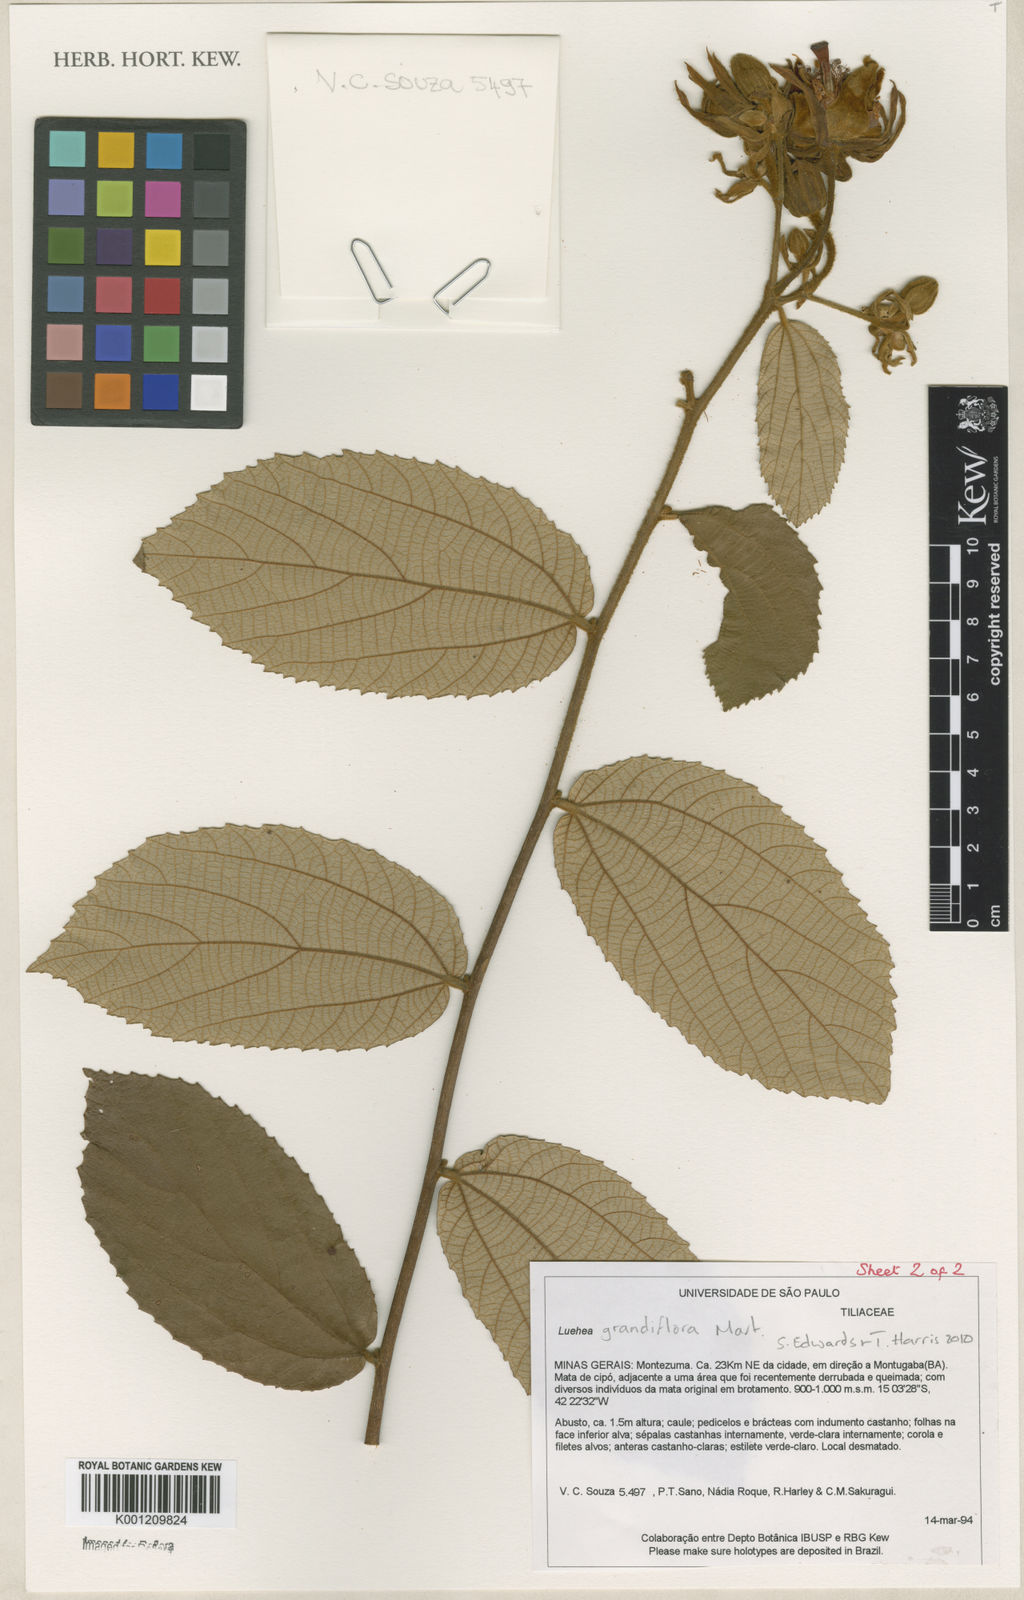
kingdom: Plantae
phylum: Tracheophyta
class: Magnoliopsida
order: Malvales
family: Malvaceae
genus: Luehea
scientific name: Luehea grandiflora
